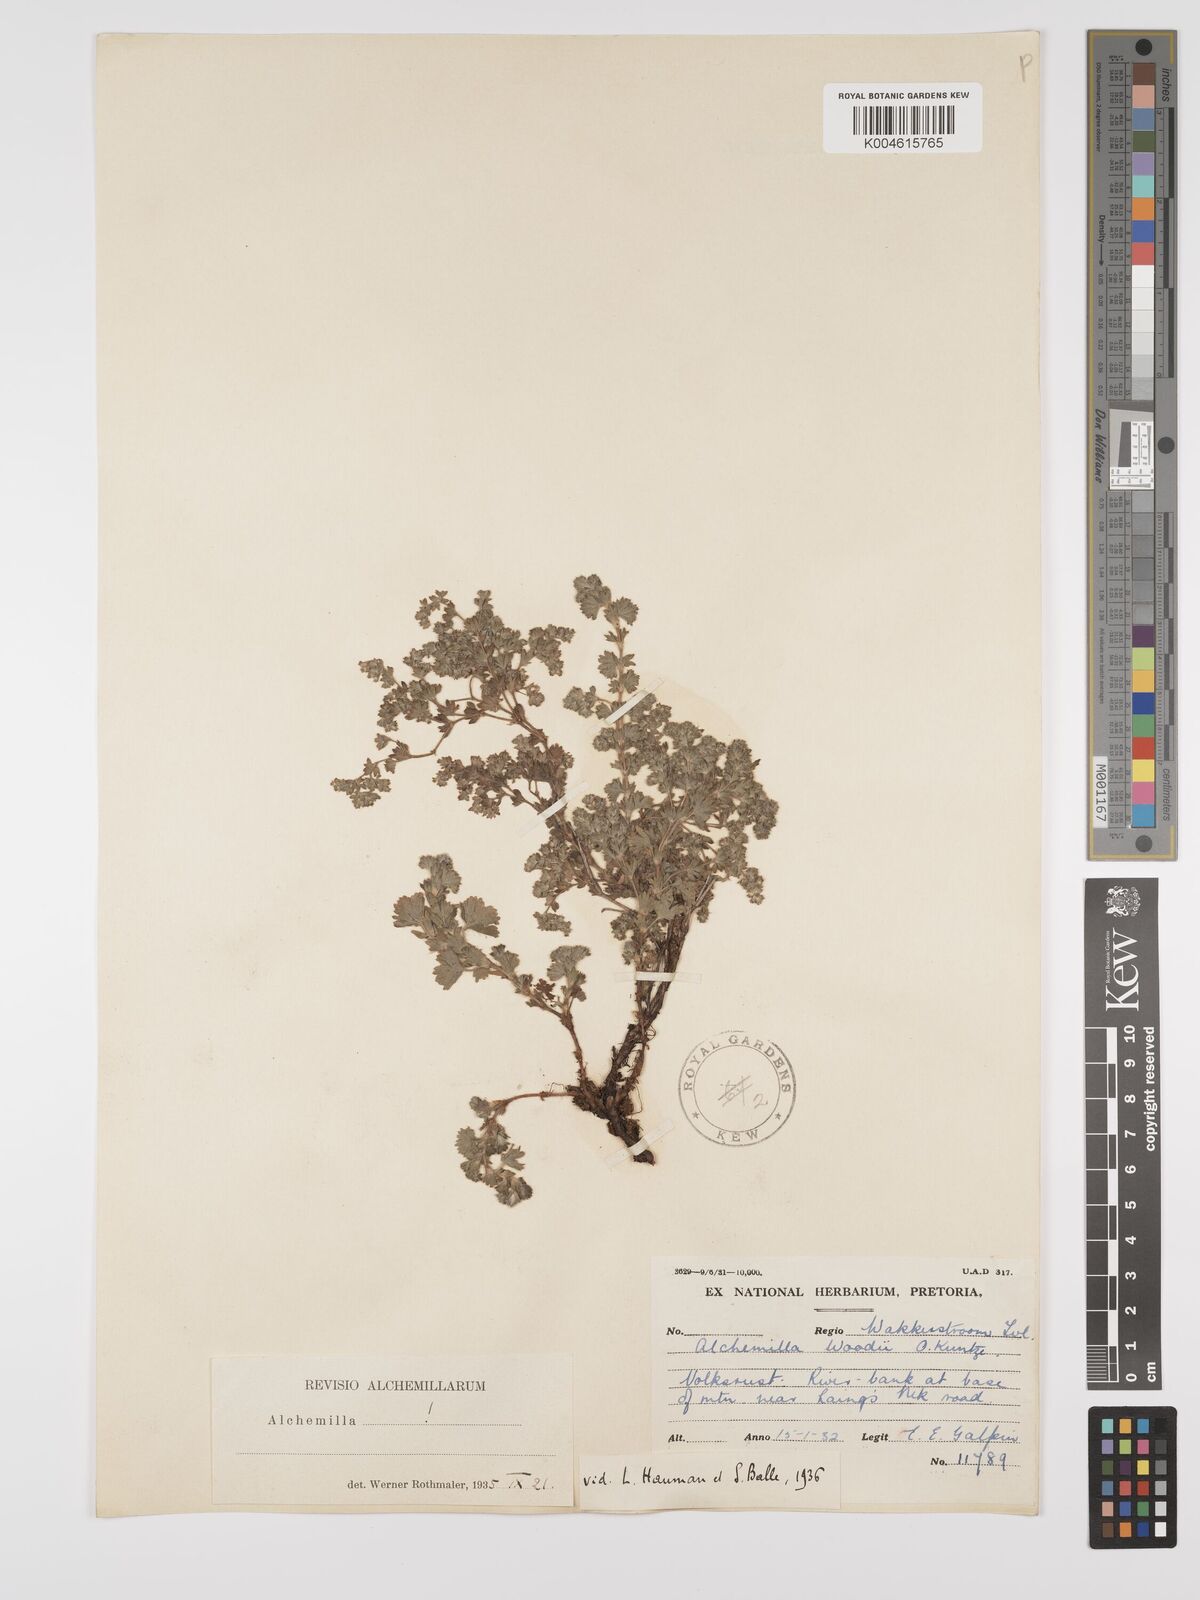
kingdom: Plantae
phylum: Tracheophyta
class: Magnoliopsida
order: Rosales
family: Rosaceae
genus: Alchemilla
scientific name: Alchemilla woodii
